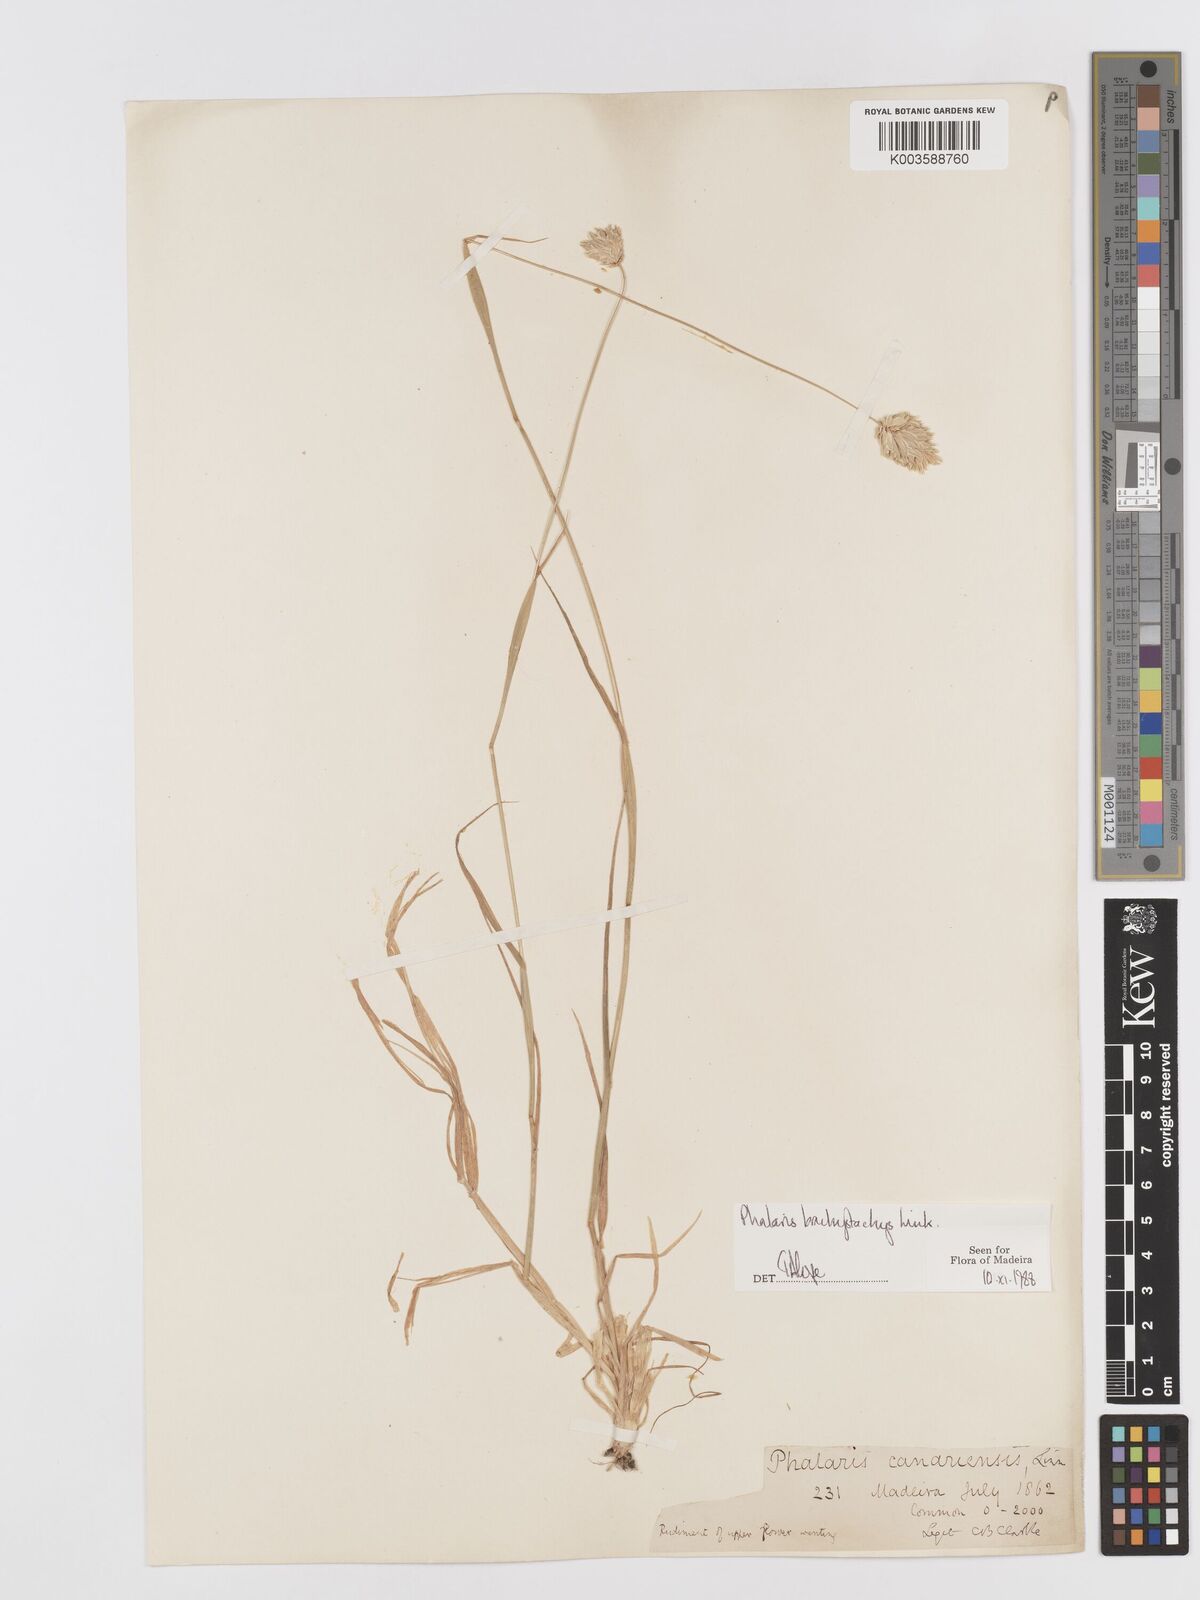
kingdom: Plantae
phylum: Tracheophyta
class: Liliopsida
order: Poales
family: Poaceae
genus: Phalaris
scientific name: Phalaris brachystachys
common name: Confused canary-grass
